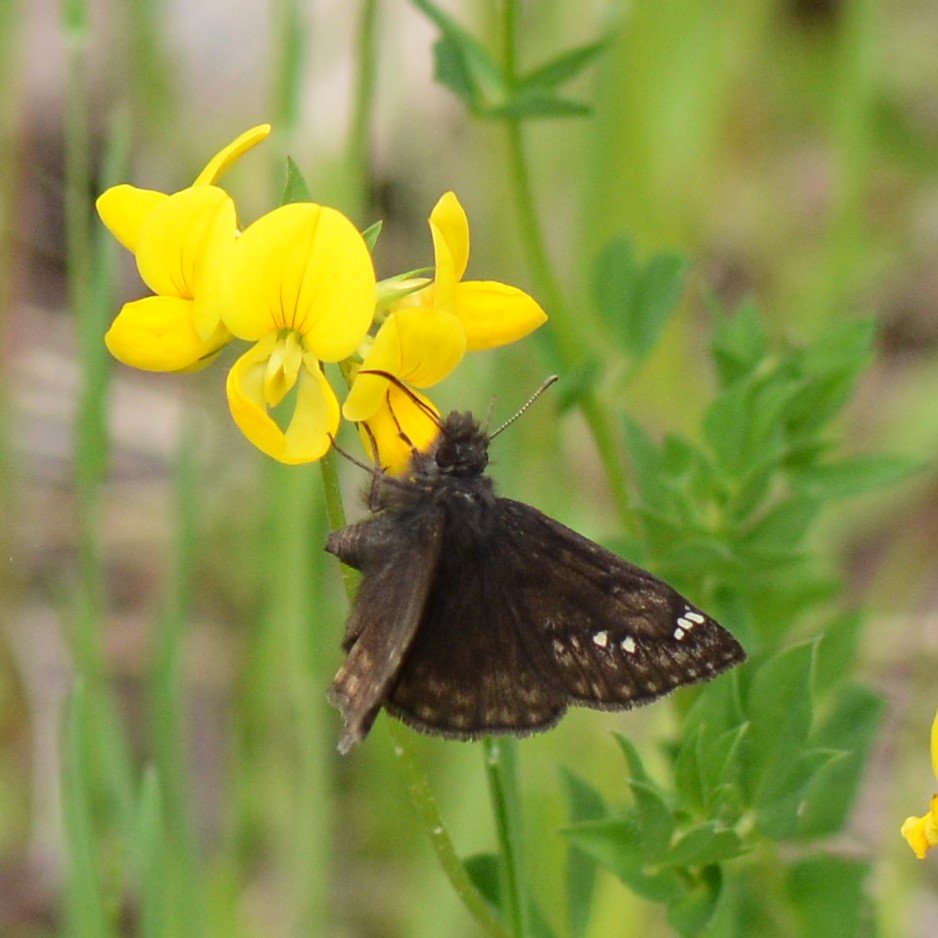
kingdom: Animalia
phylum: Arthropoda
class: Insecta
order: Lepidoptera
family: Hesperiidae
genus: Gesta
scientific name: Gesta
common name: Columbine Duskywing
